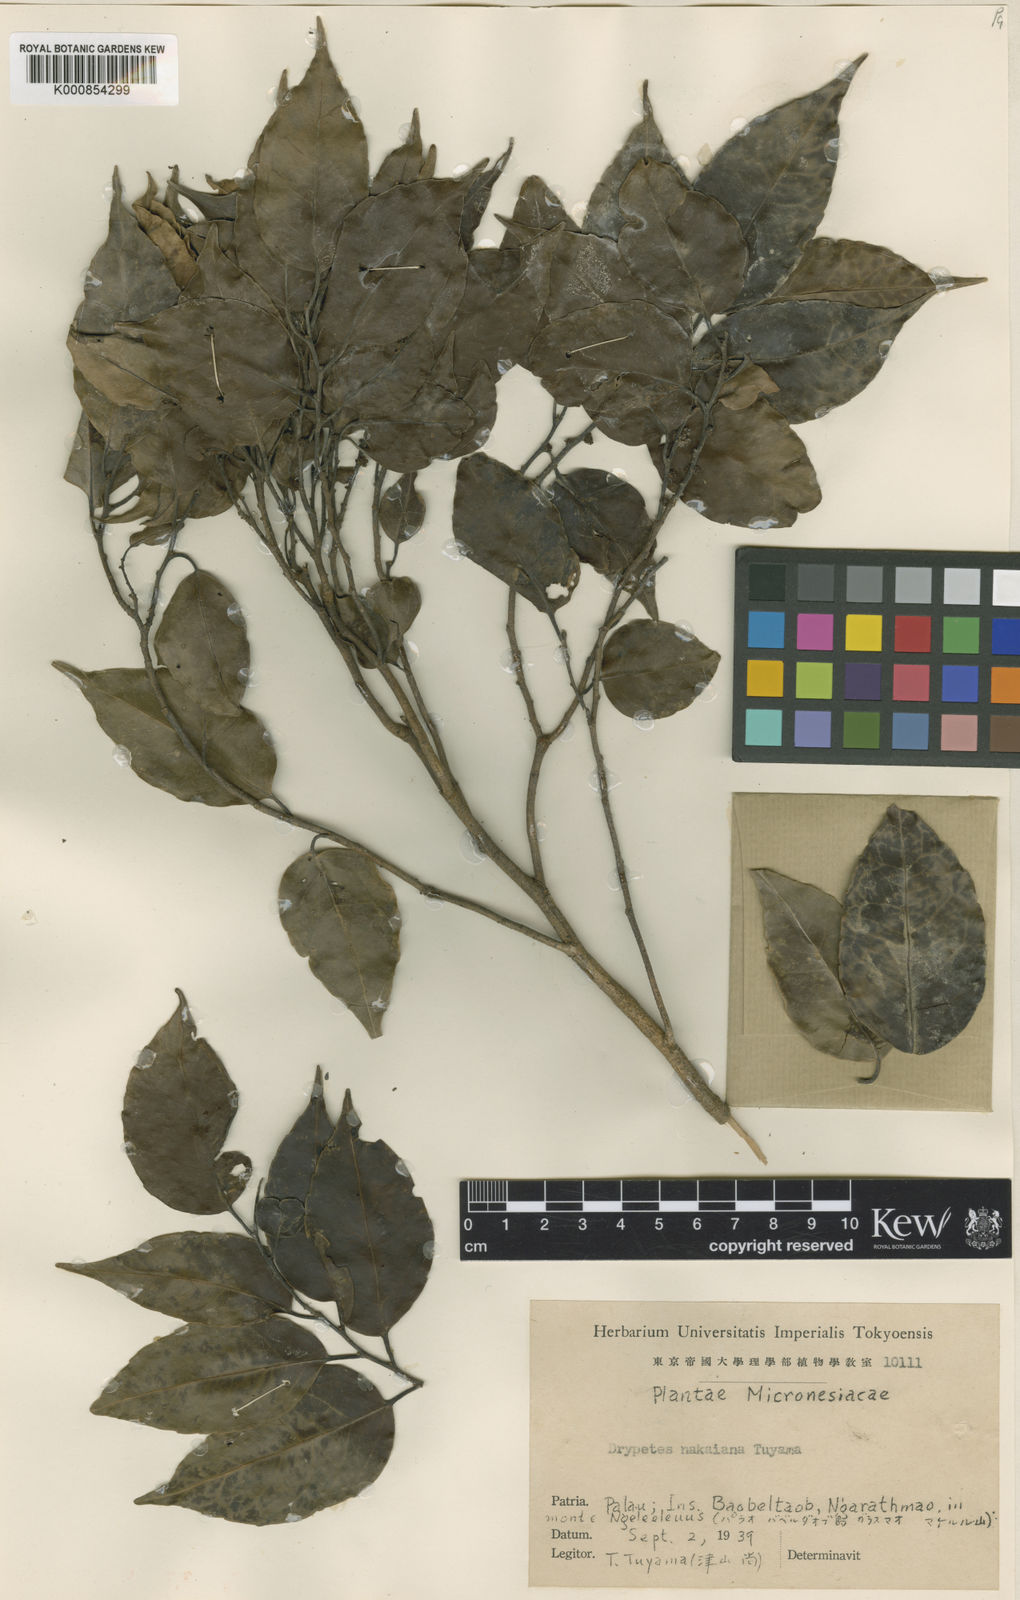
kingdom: Plantae
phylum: Tracheophyta
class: Magnoliopsida
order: Malpighiales
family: Putranjivaceae
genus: Drypetes
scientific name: Drypetes nitida
